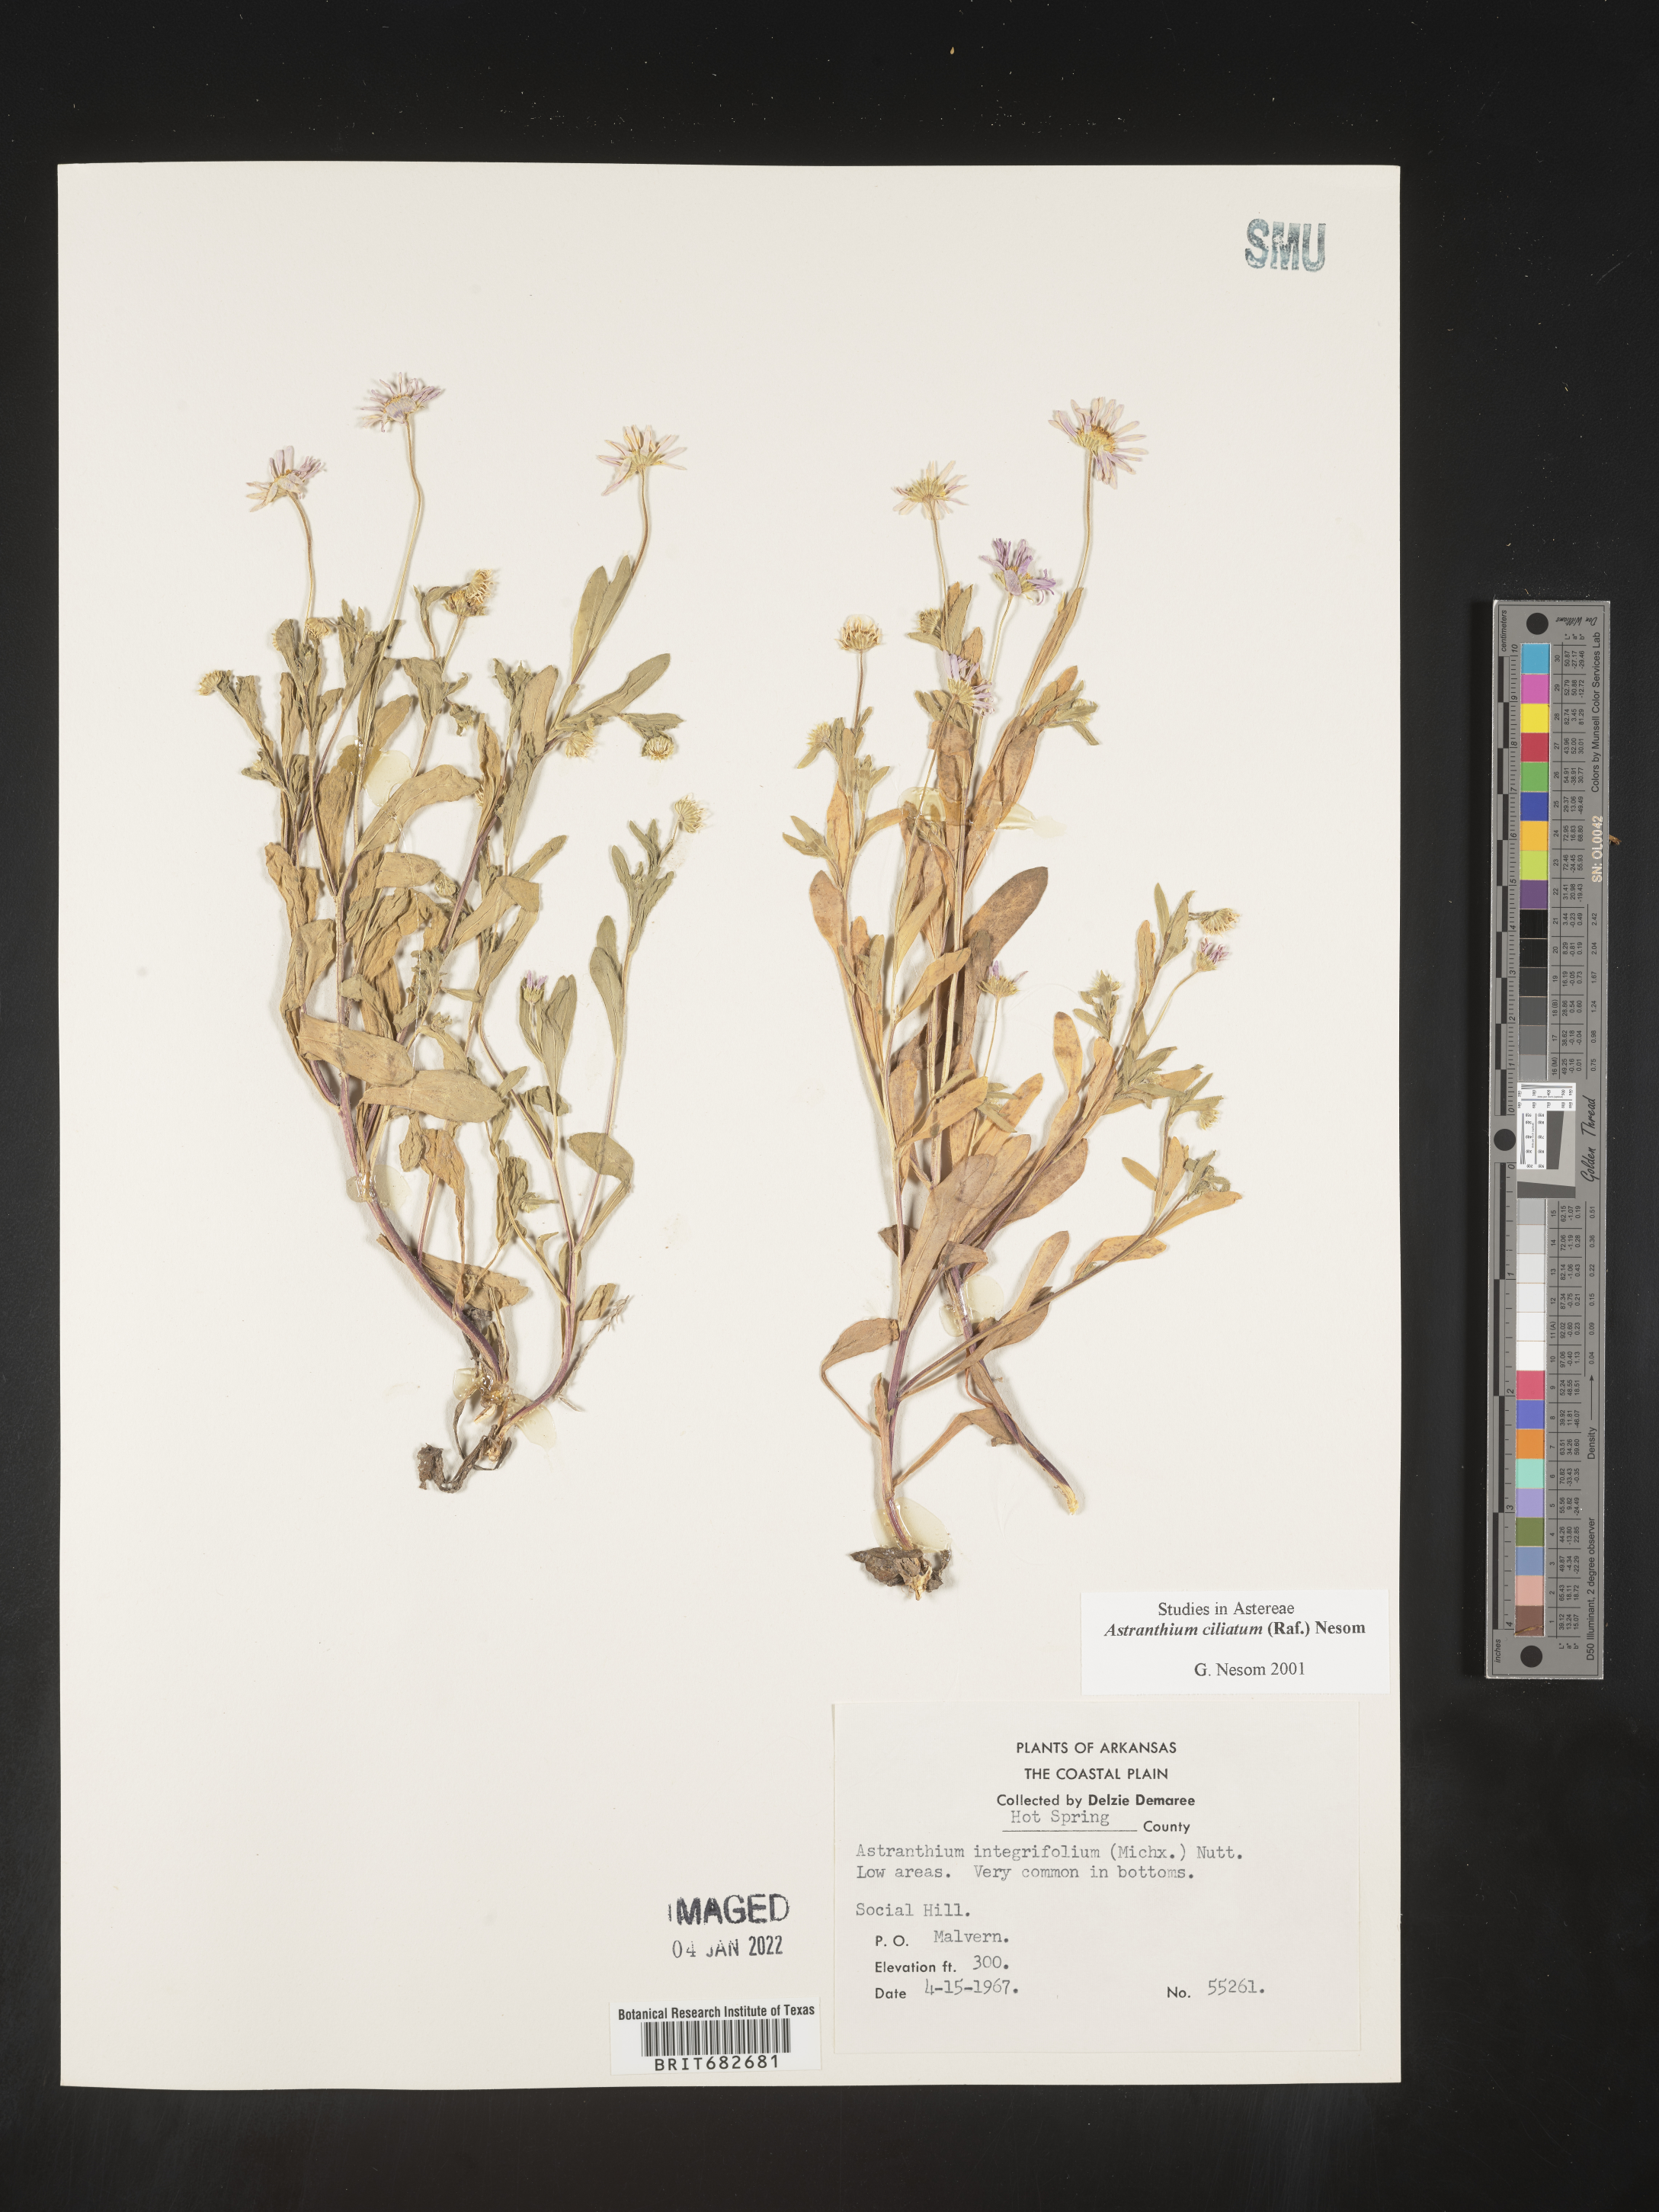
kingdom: Plantae
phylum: Tracheophyta
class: Magnoliopsida
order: Asterales
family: Asteraceae
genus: Astranthium
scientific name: Astranthium ciliatum
